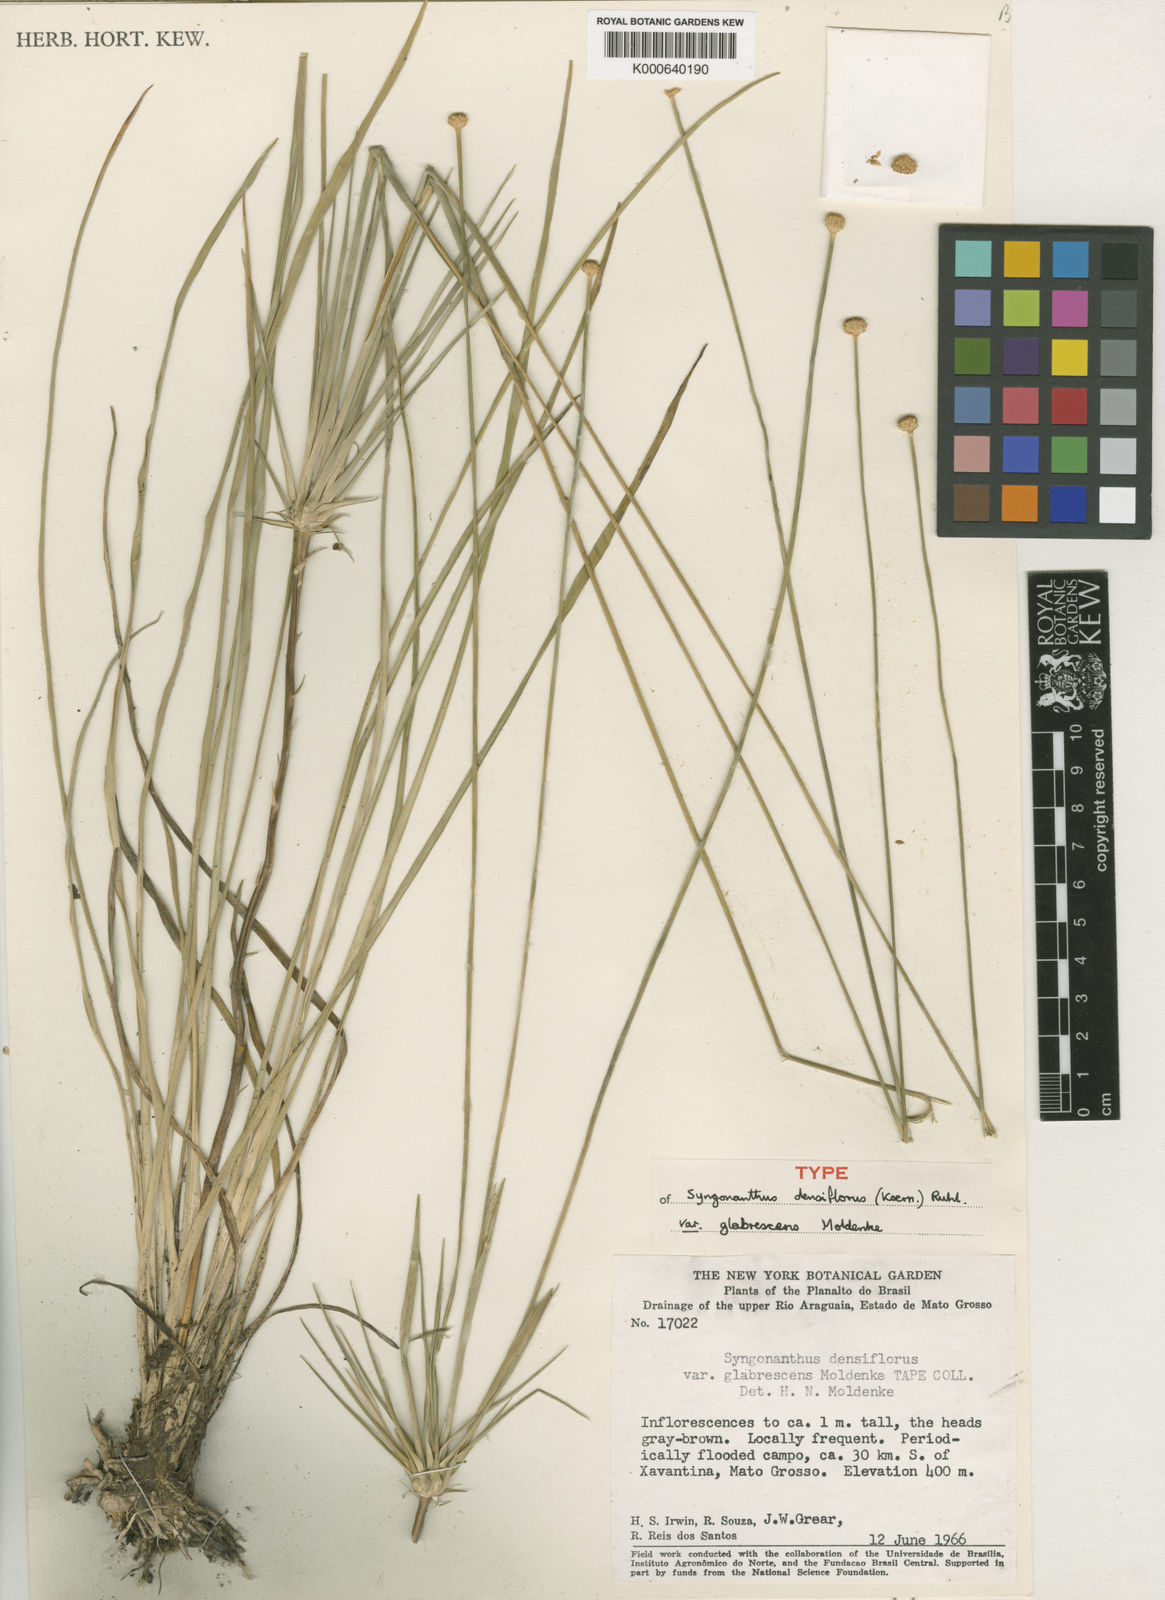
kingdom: Plantae
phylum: Tracheophyta
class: Liliopsida
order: Poales
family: Eriocaulaceae
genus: Syngonanthus
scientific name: Syngonanthus
